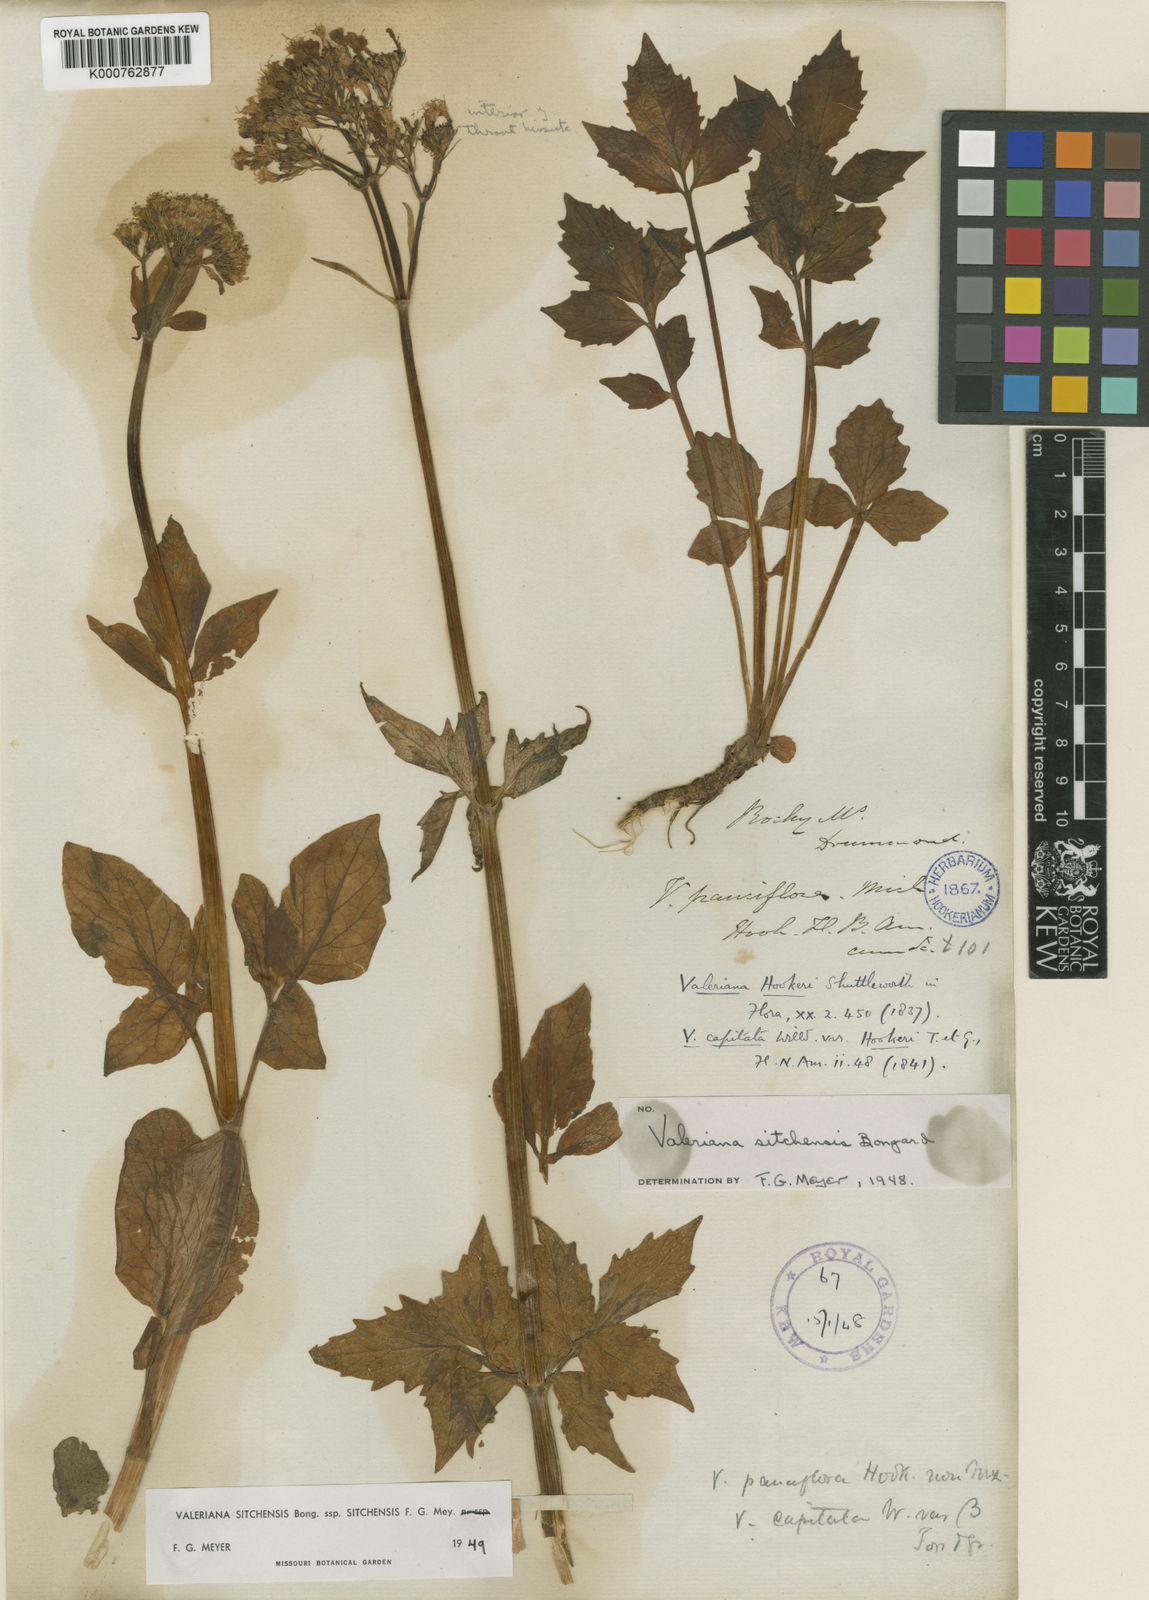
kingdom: Plantae
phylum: Tracheophyta
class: Magnoliopsida
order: Dipsacales
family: Caprifoliaceae
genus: Valeriana
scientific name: Valeriana sitchensis
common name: Pacific valerian
